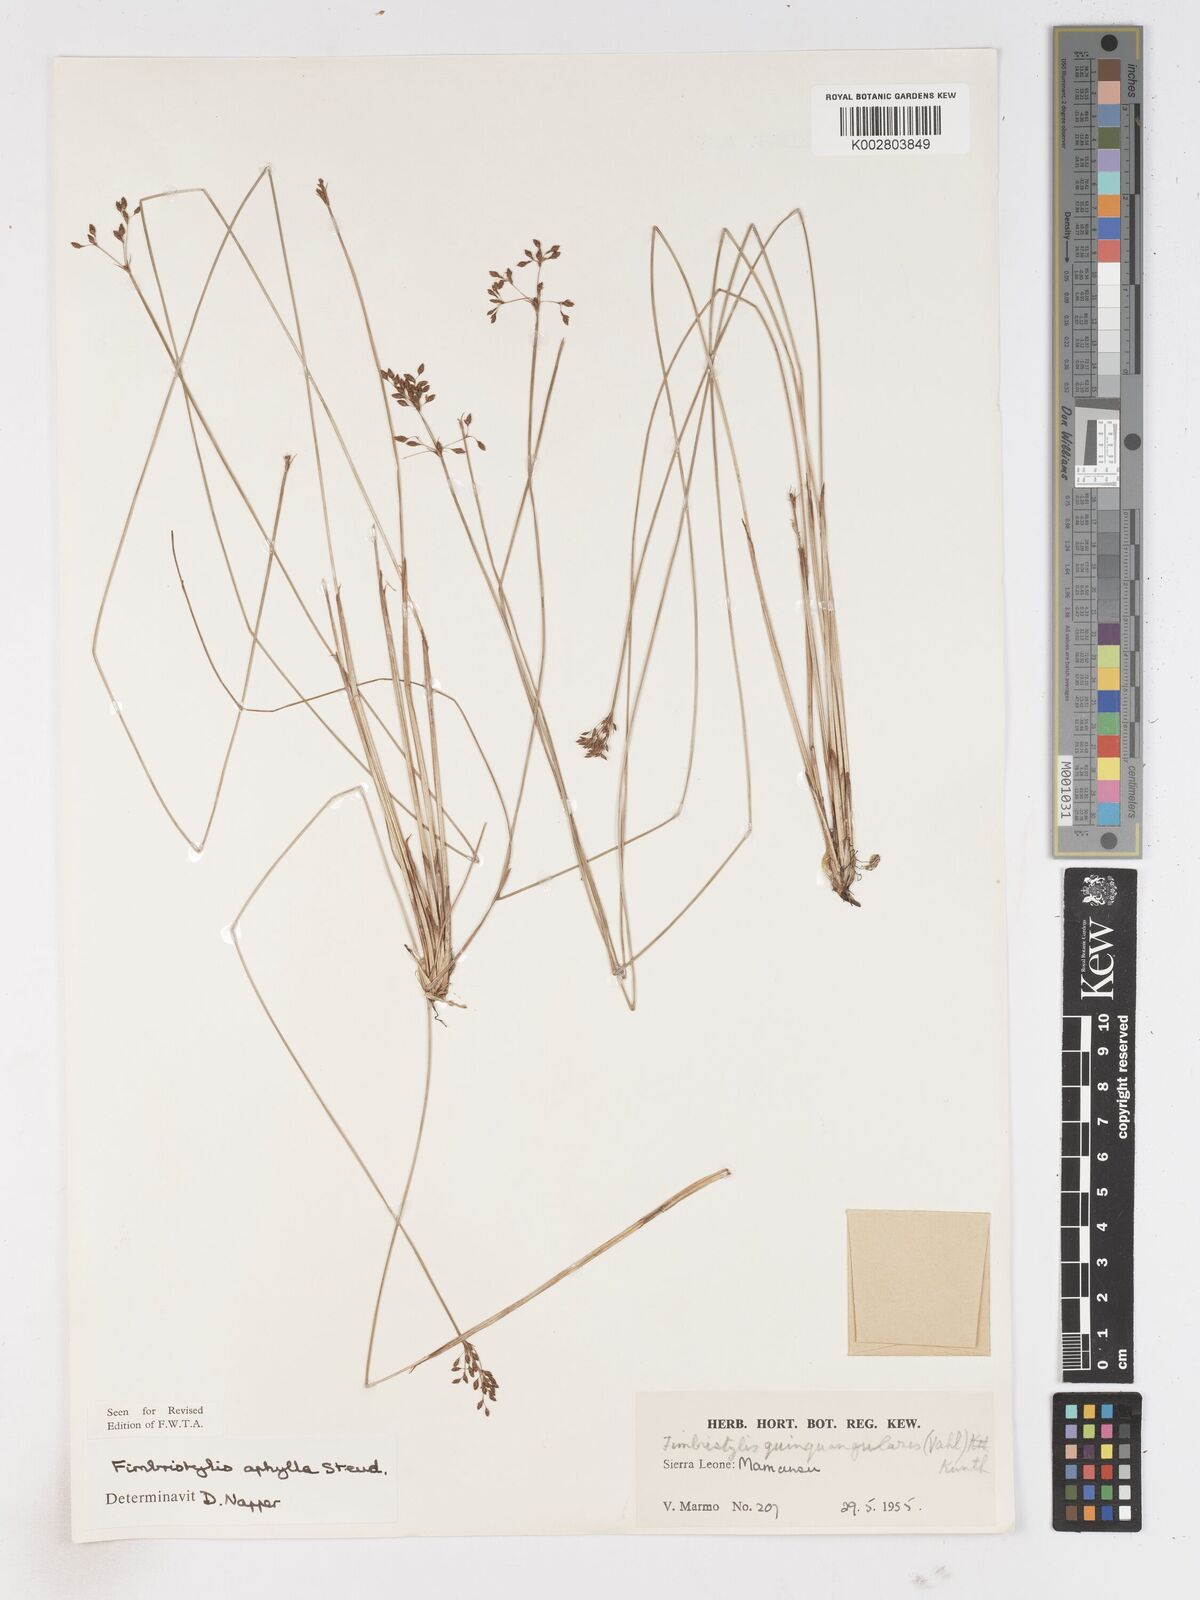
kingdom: Plantae
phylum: Tracheophyta
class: Liliopsida
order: Poales
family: Cyperaceae
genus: Fimbristylis
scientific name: Fimbristylis aphylla
